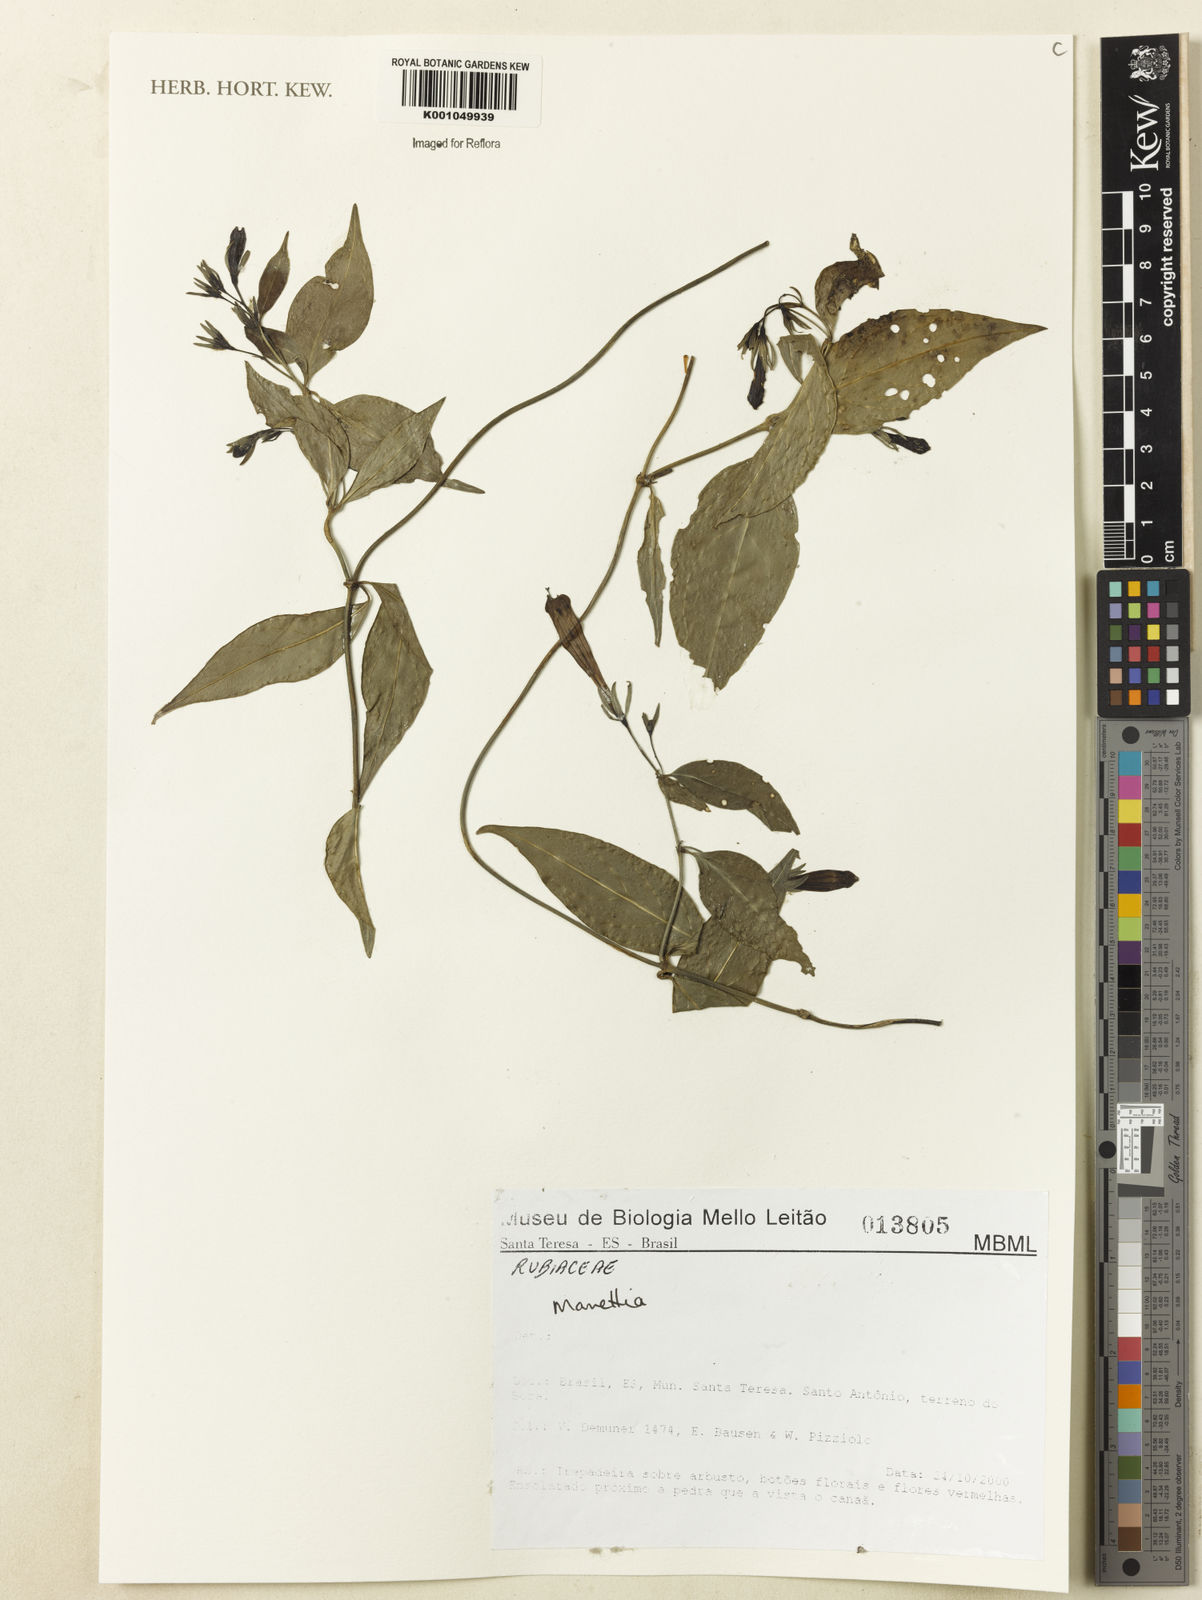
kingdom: Plantae
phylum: Tracheophyta
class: Magnoliopsida
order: Gentianales
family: Rubiaceae
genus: Manettia
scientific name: Manettia
